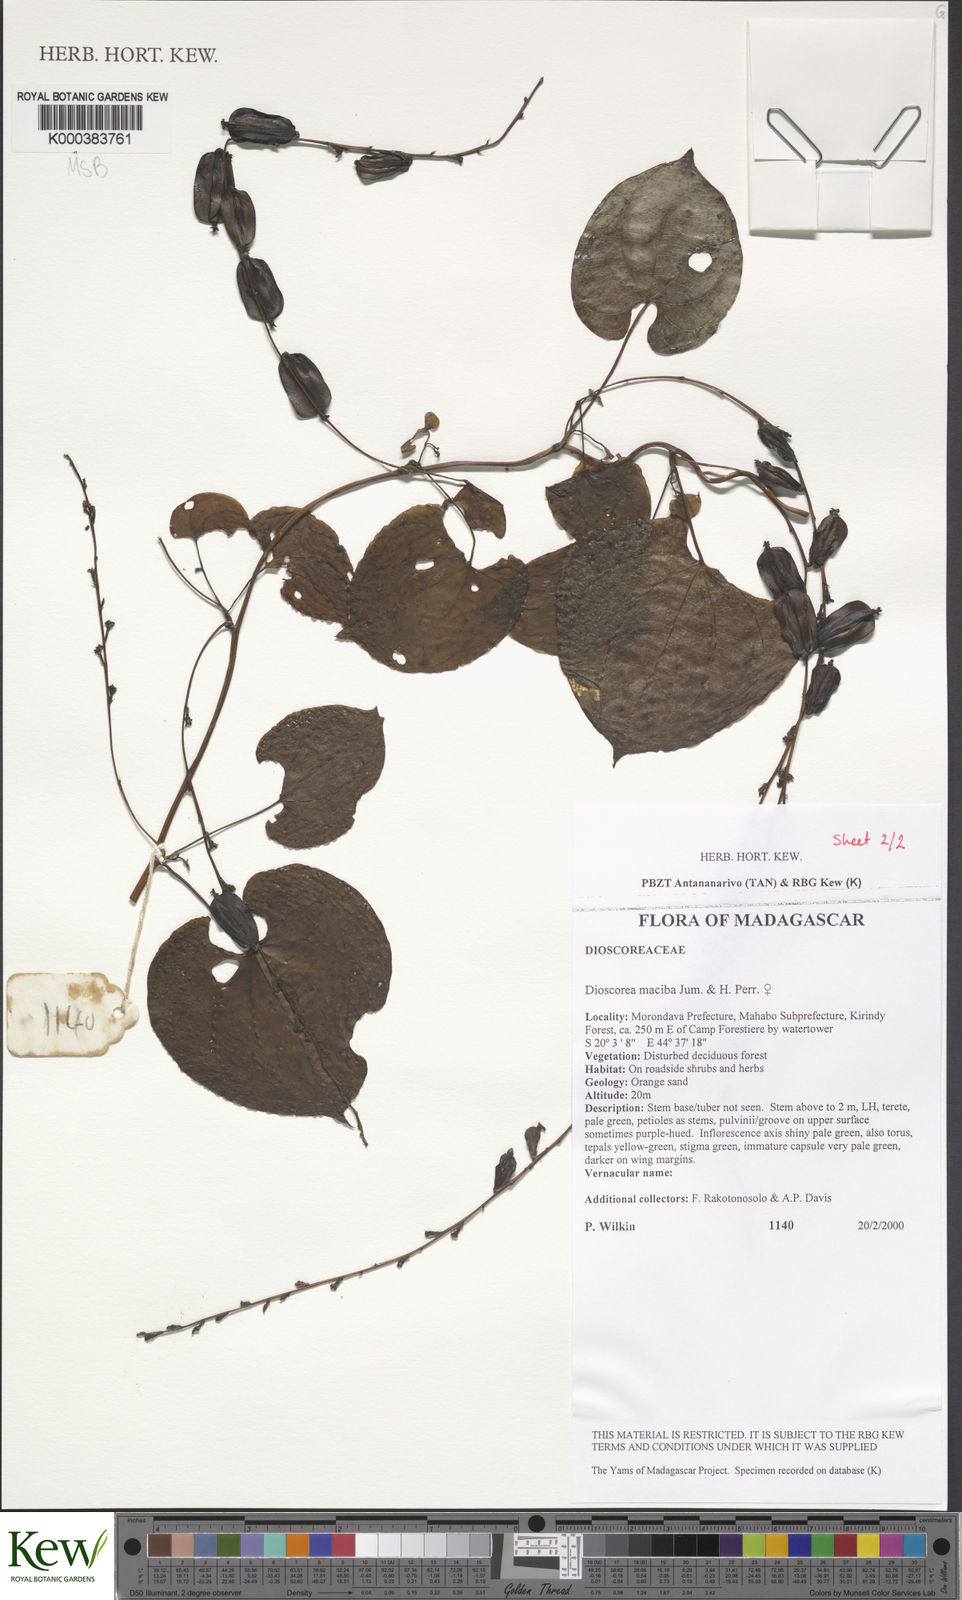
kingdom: Plantae
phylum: Tracheophyta
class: Liliopsida
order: Dioscoreales
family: Dioscoreaceae
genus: Dioscorea
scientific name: Dioscorea
